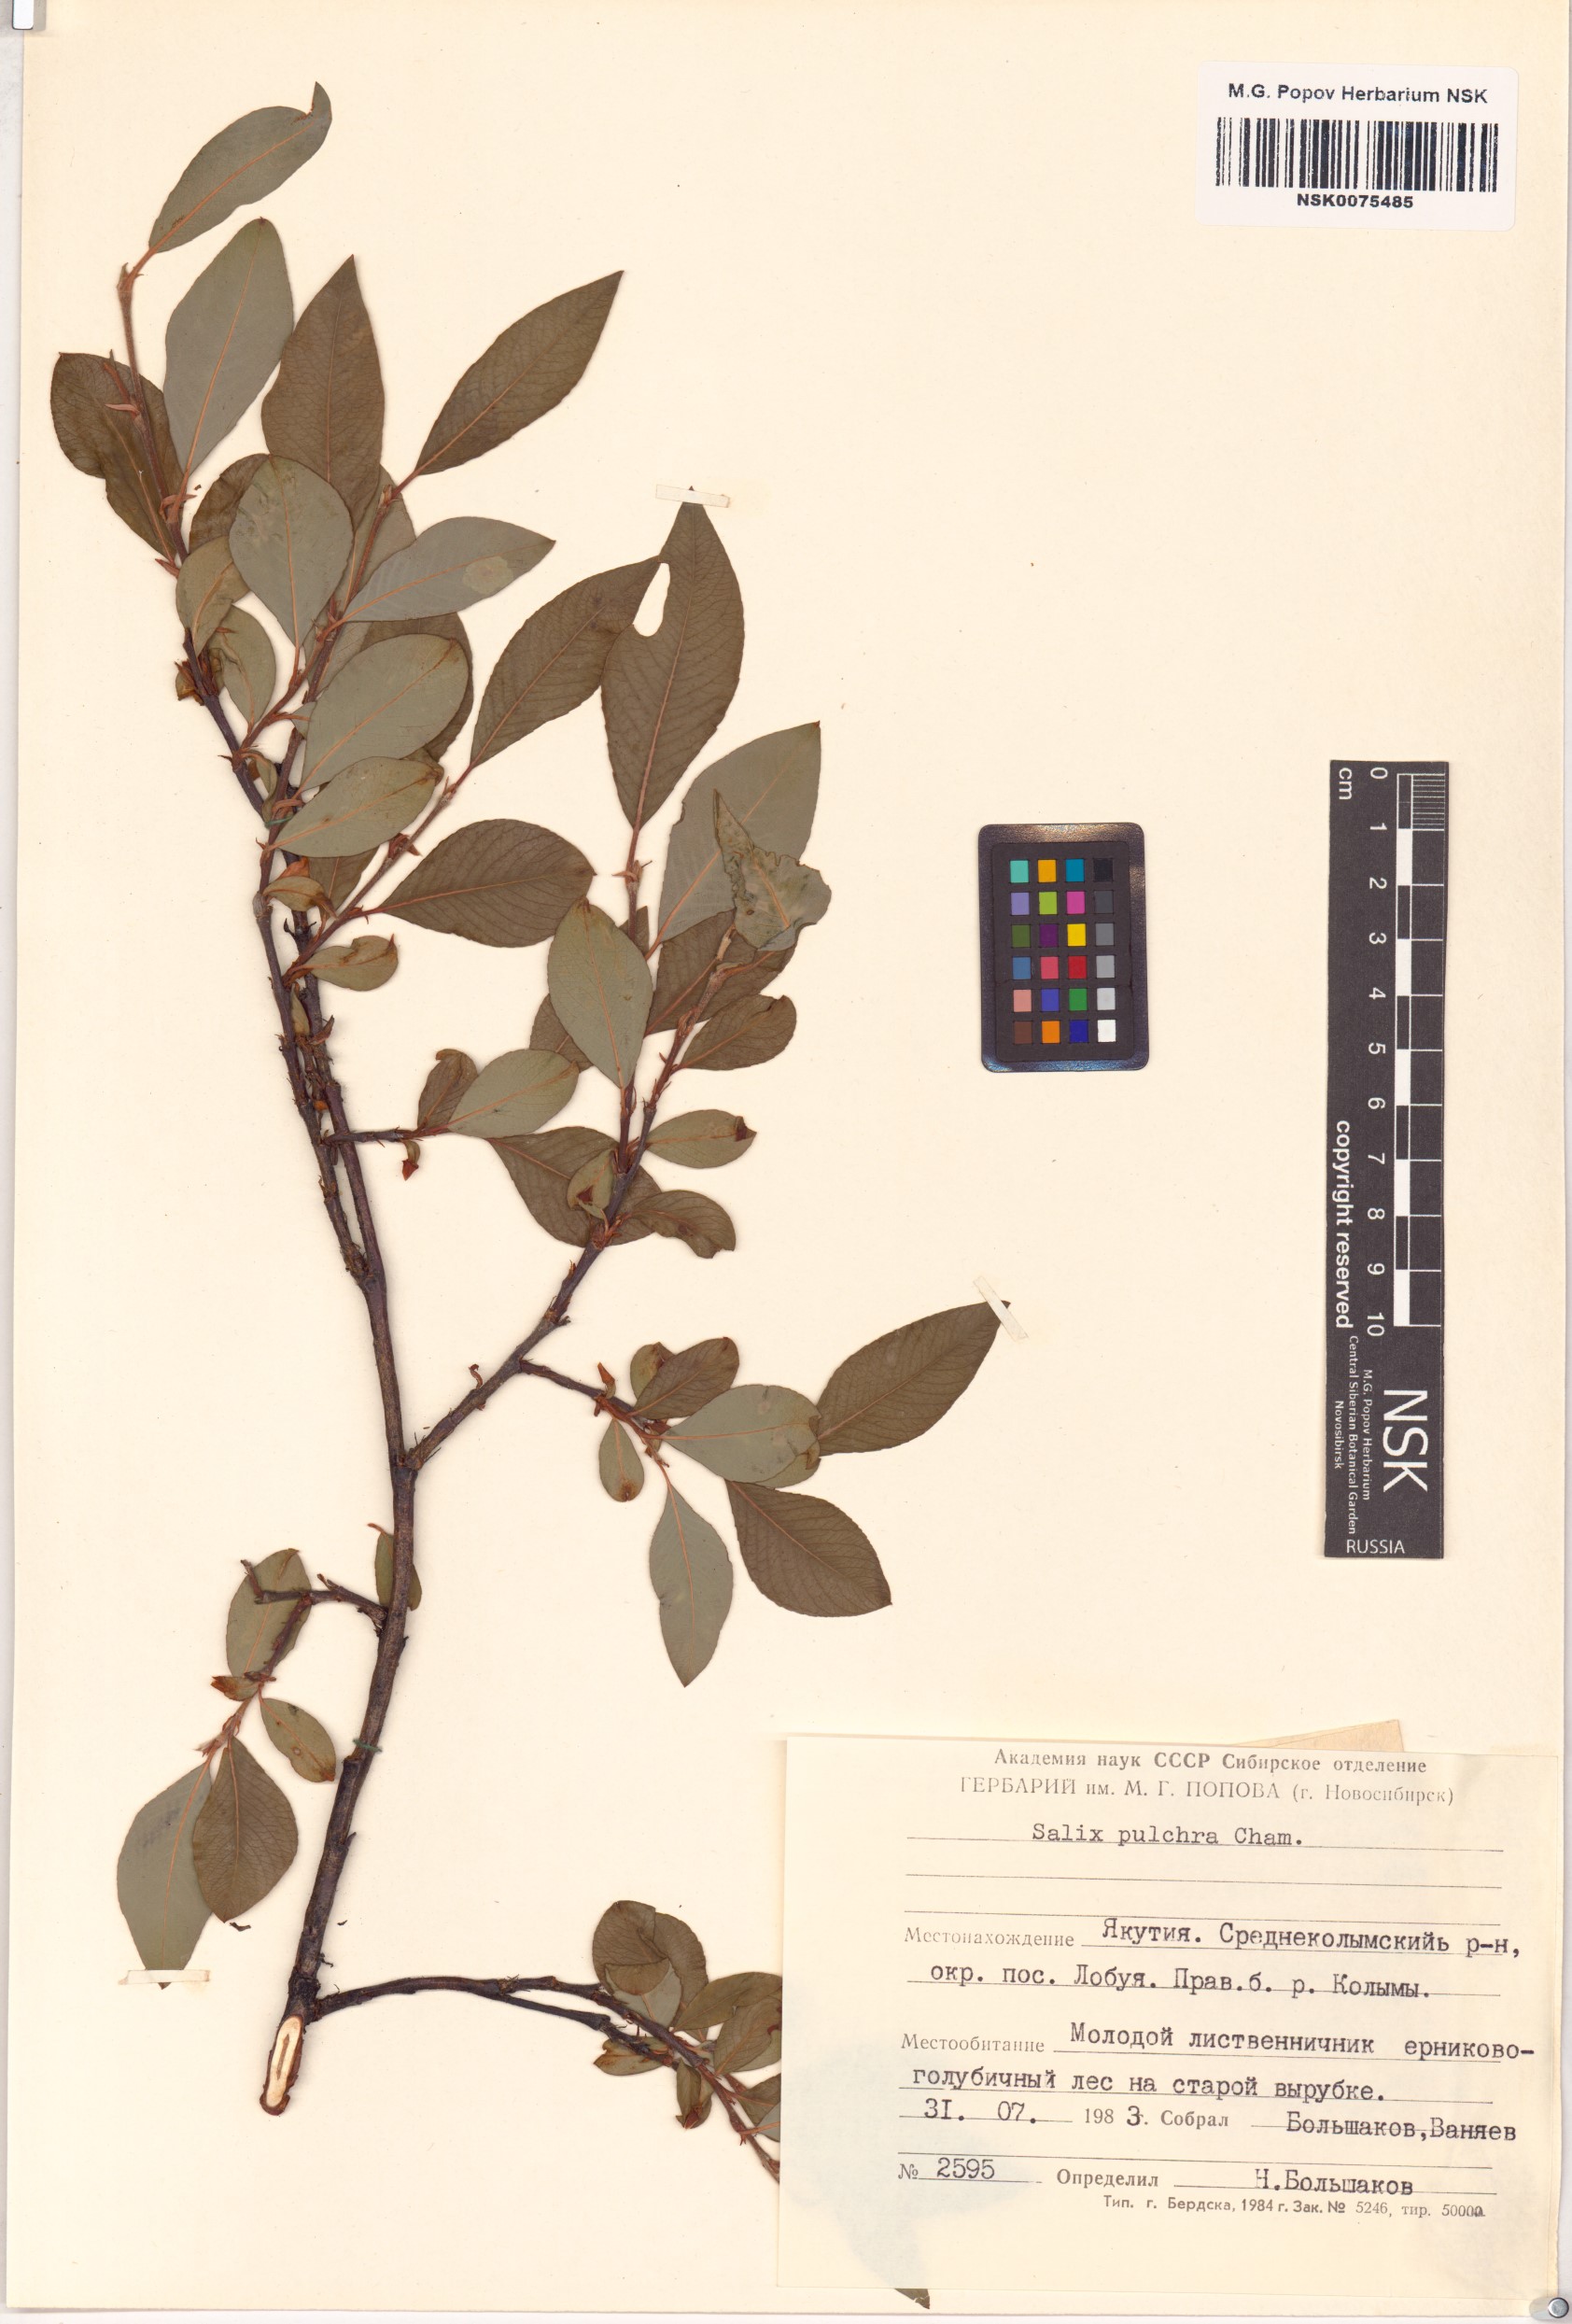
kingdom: Plantae
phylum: Tracheophyta
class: Magnoliopsida
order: Malpighiales
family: Salicaceae
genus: Salix
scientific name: Salix pulchra
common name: Diamond-leaved willow
